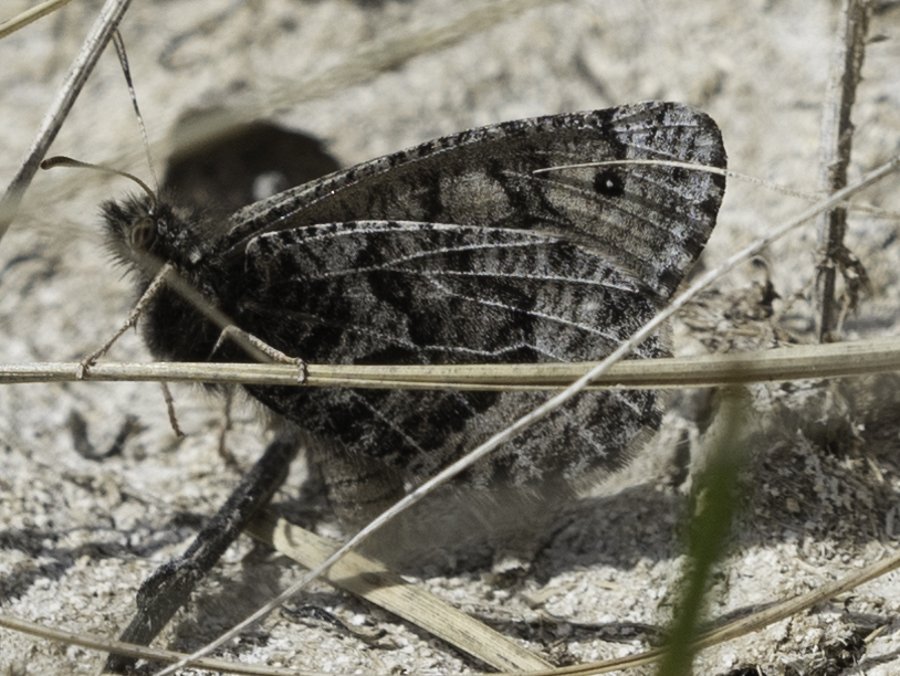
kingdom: Animalia
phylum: Arthropoda
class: Insecta
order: Lepidoptera
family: Nymphalidae
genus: Oeneis
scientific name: Oeneis alberta
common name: Alberta Arctic
